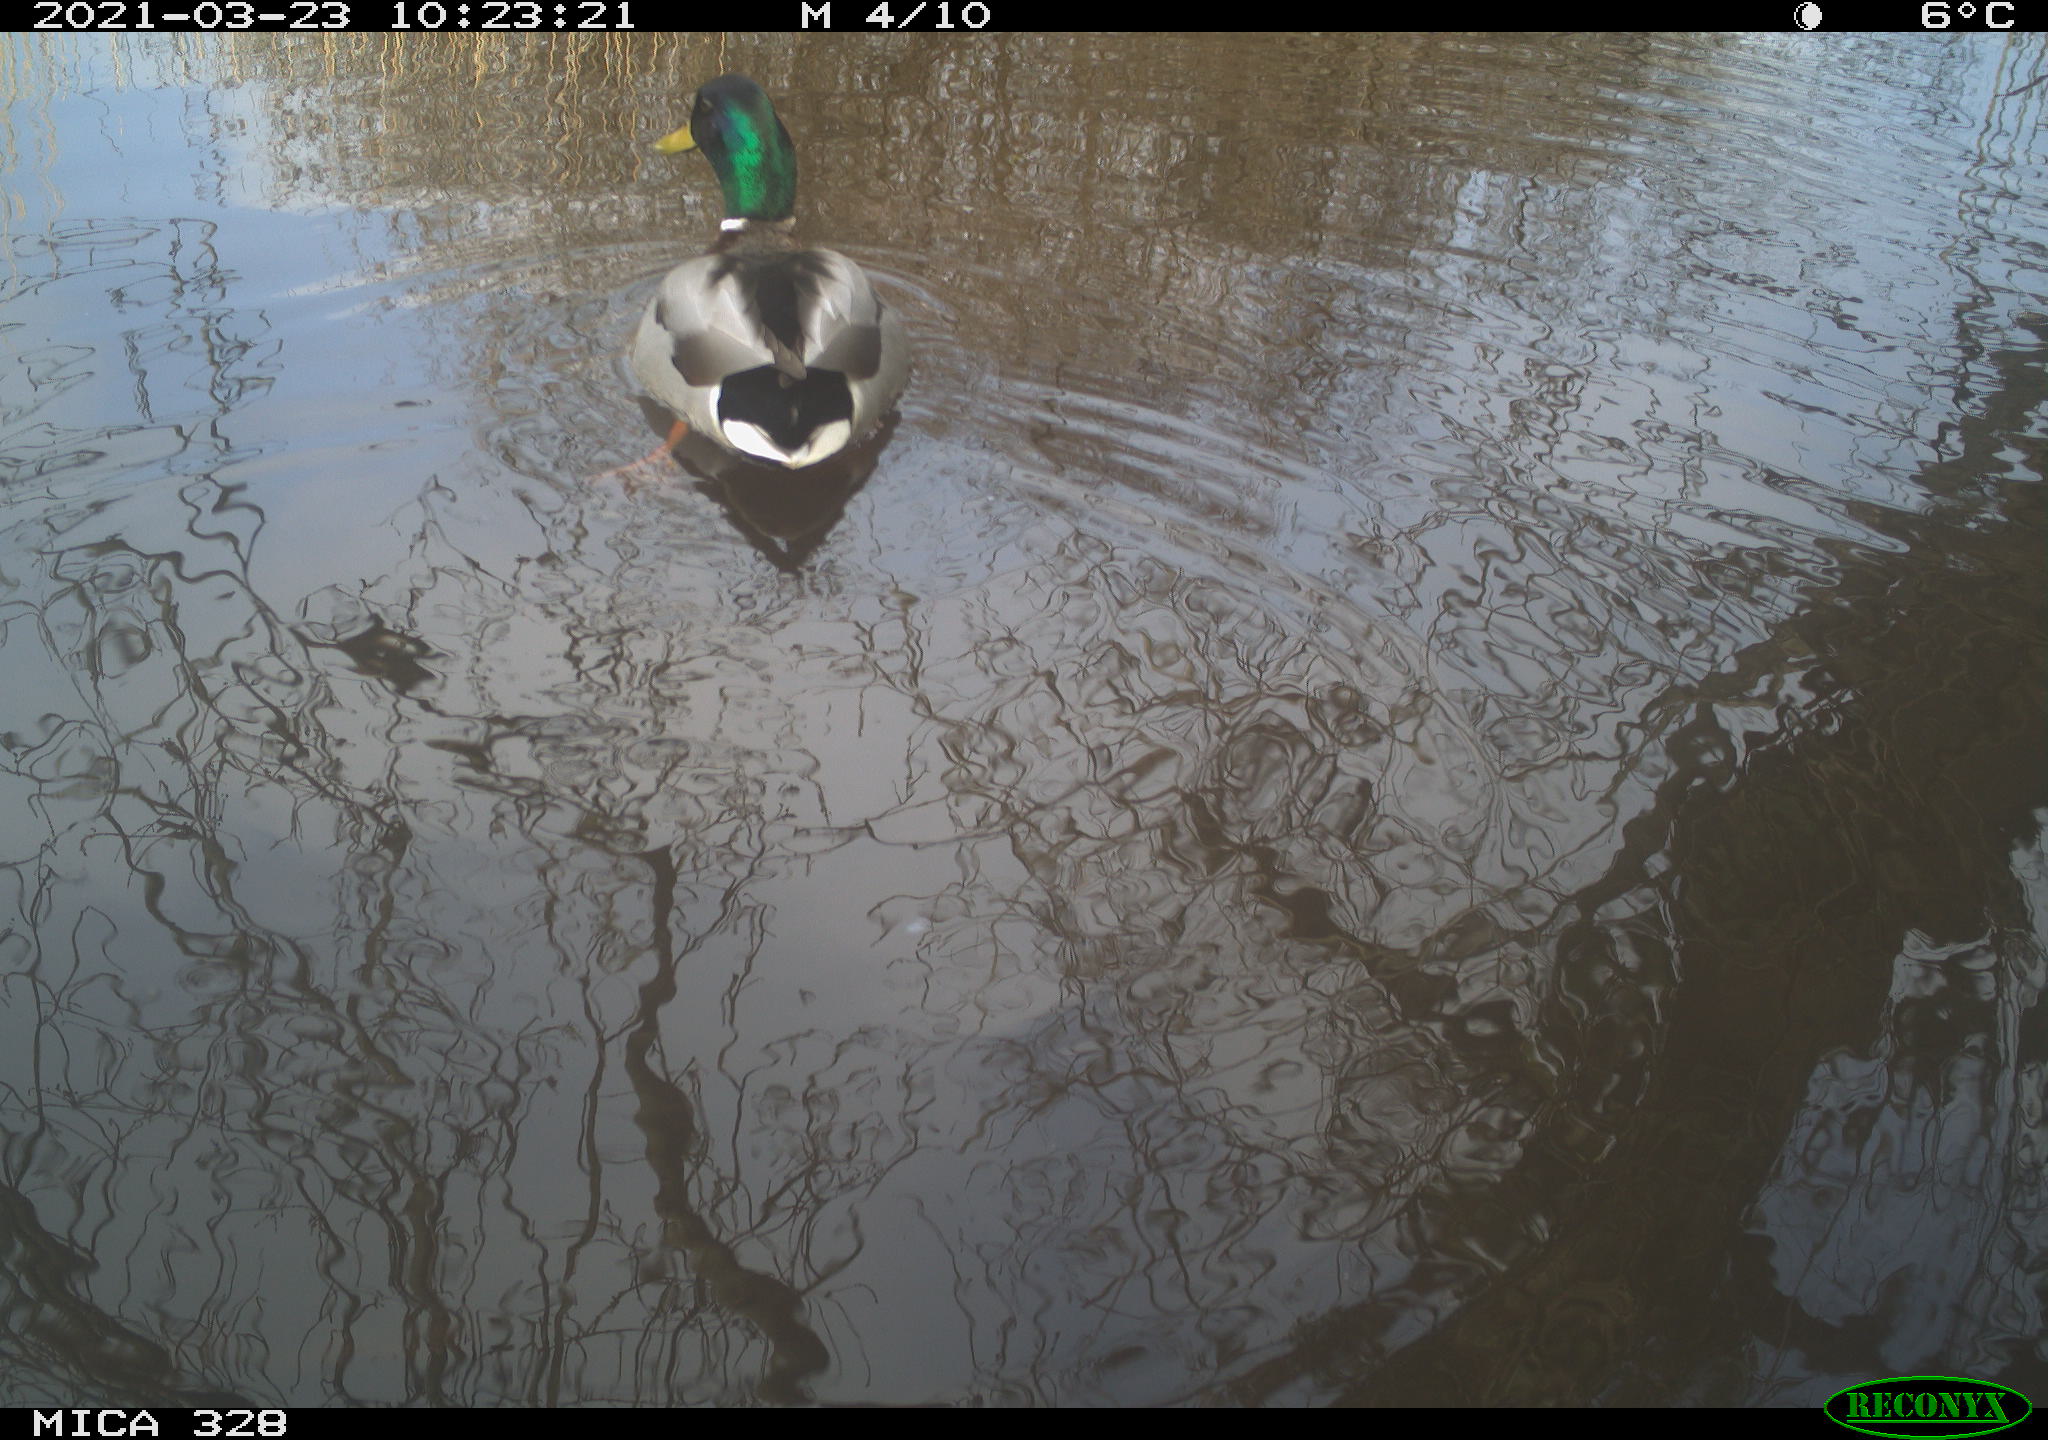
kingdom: Animalia
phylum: Chordata
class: Aves
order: Anseriformes
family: Anatidae
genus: Anas
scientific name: Anas platyrhynchos
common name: Mallard
